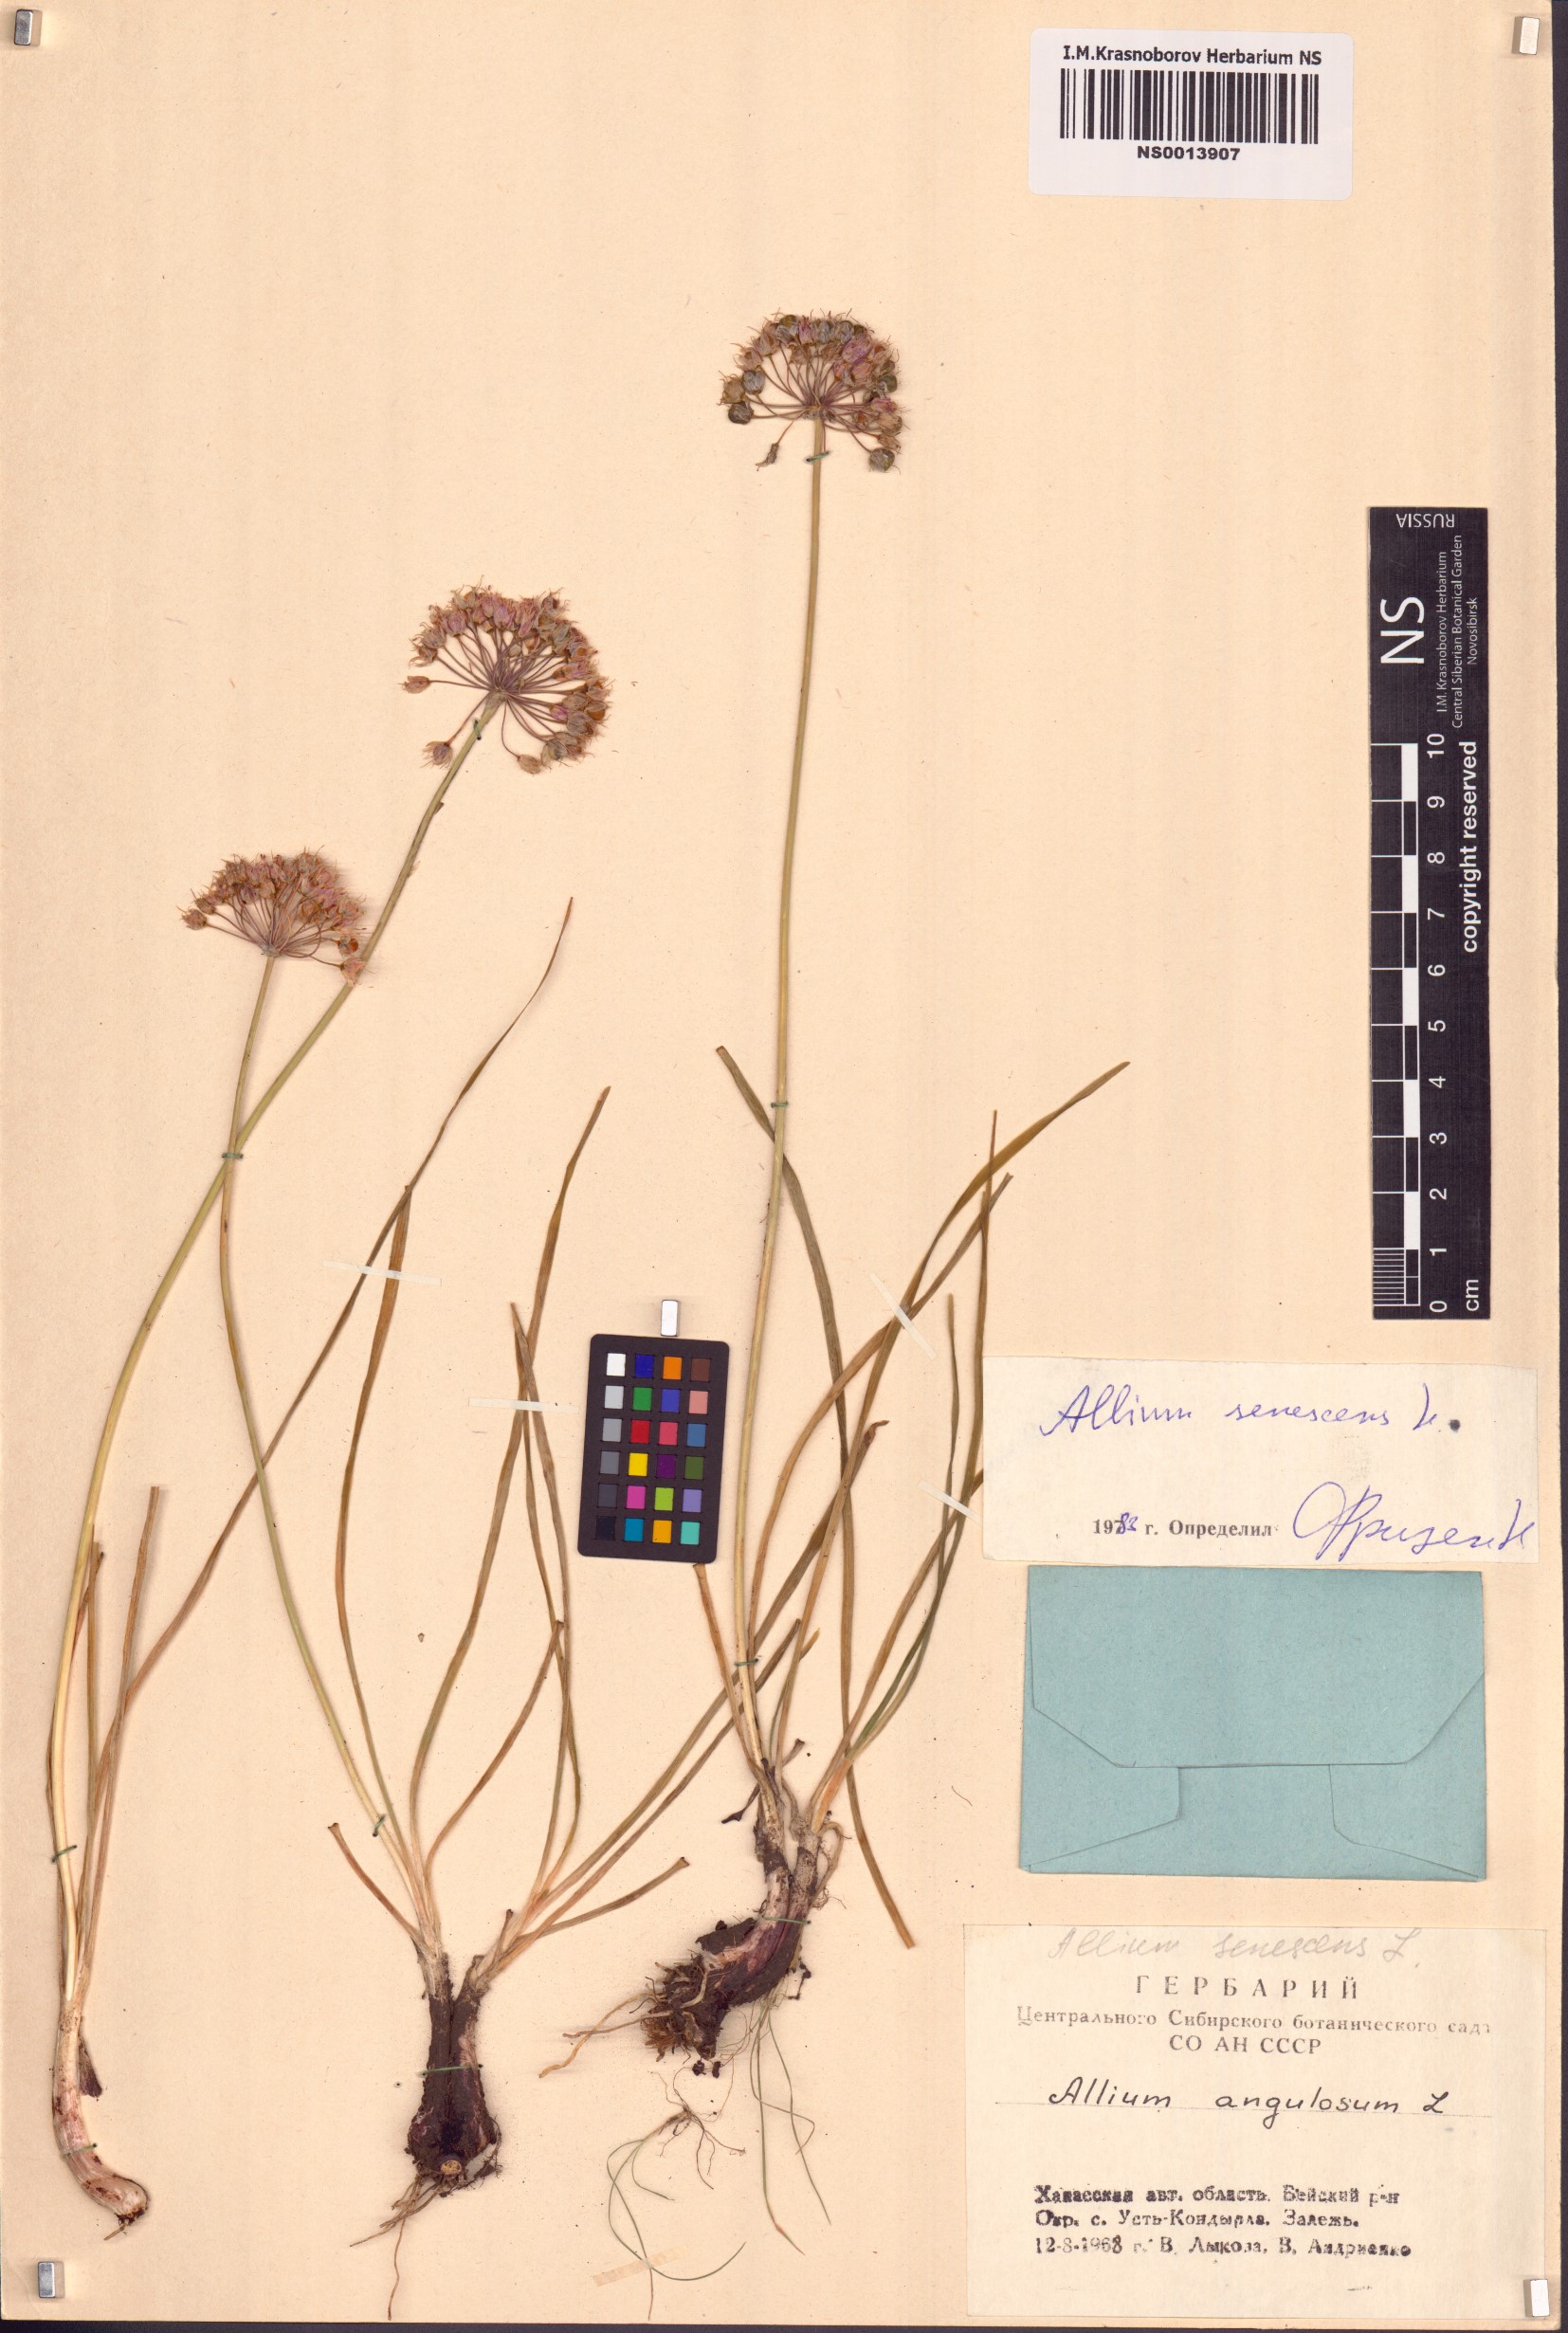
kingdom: Plantae
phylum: Tracheophyta
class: Liliopsida
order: Asparagales
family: Amaryllidaceae
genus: Allium
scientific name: Allium senescens
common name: German garlic
